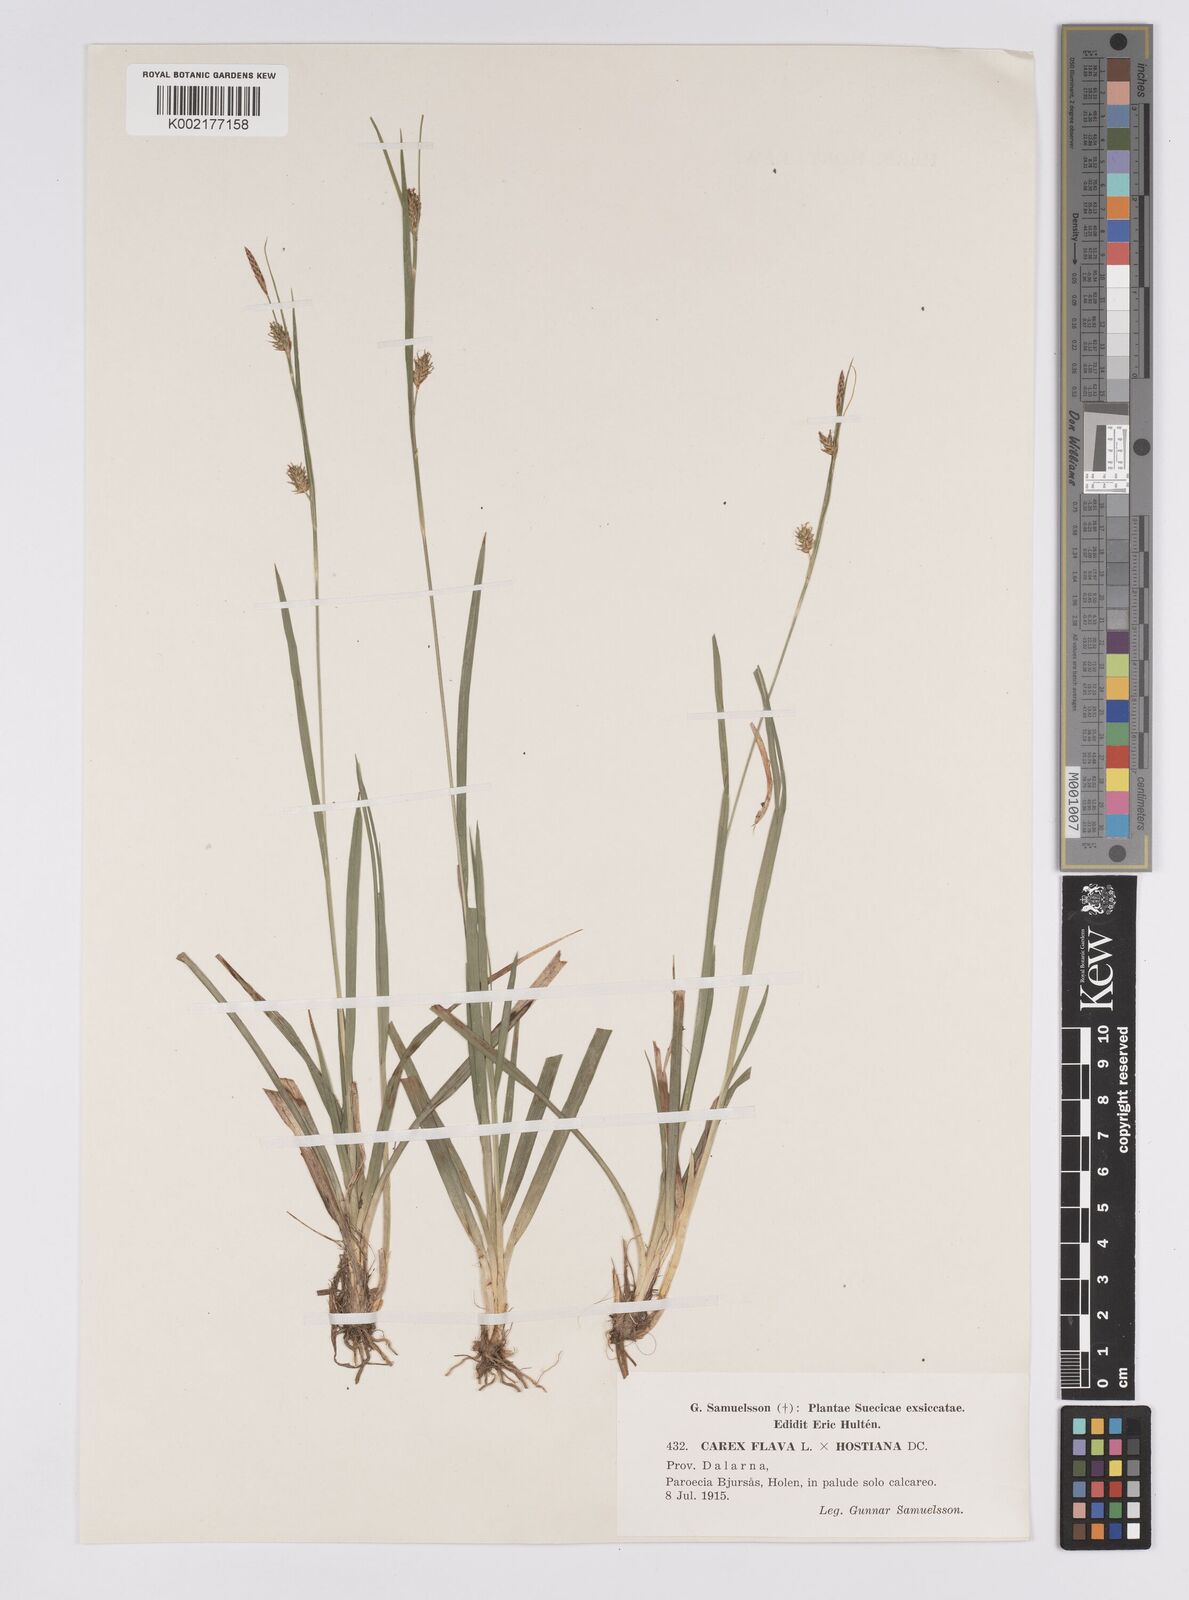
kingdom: Plantae
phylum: Tracheophyta
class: Liliopsida
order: Poales
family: Cyperaceae
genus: Carex
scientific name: Carex hostiana
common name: Tawny sedge
